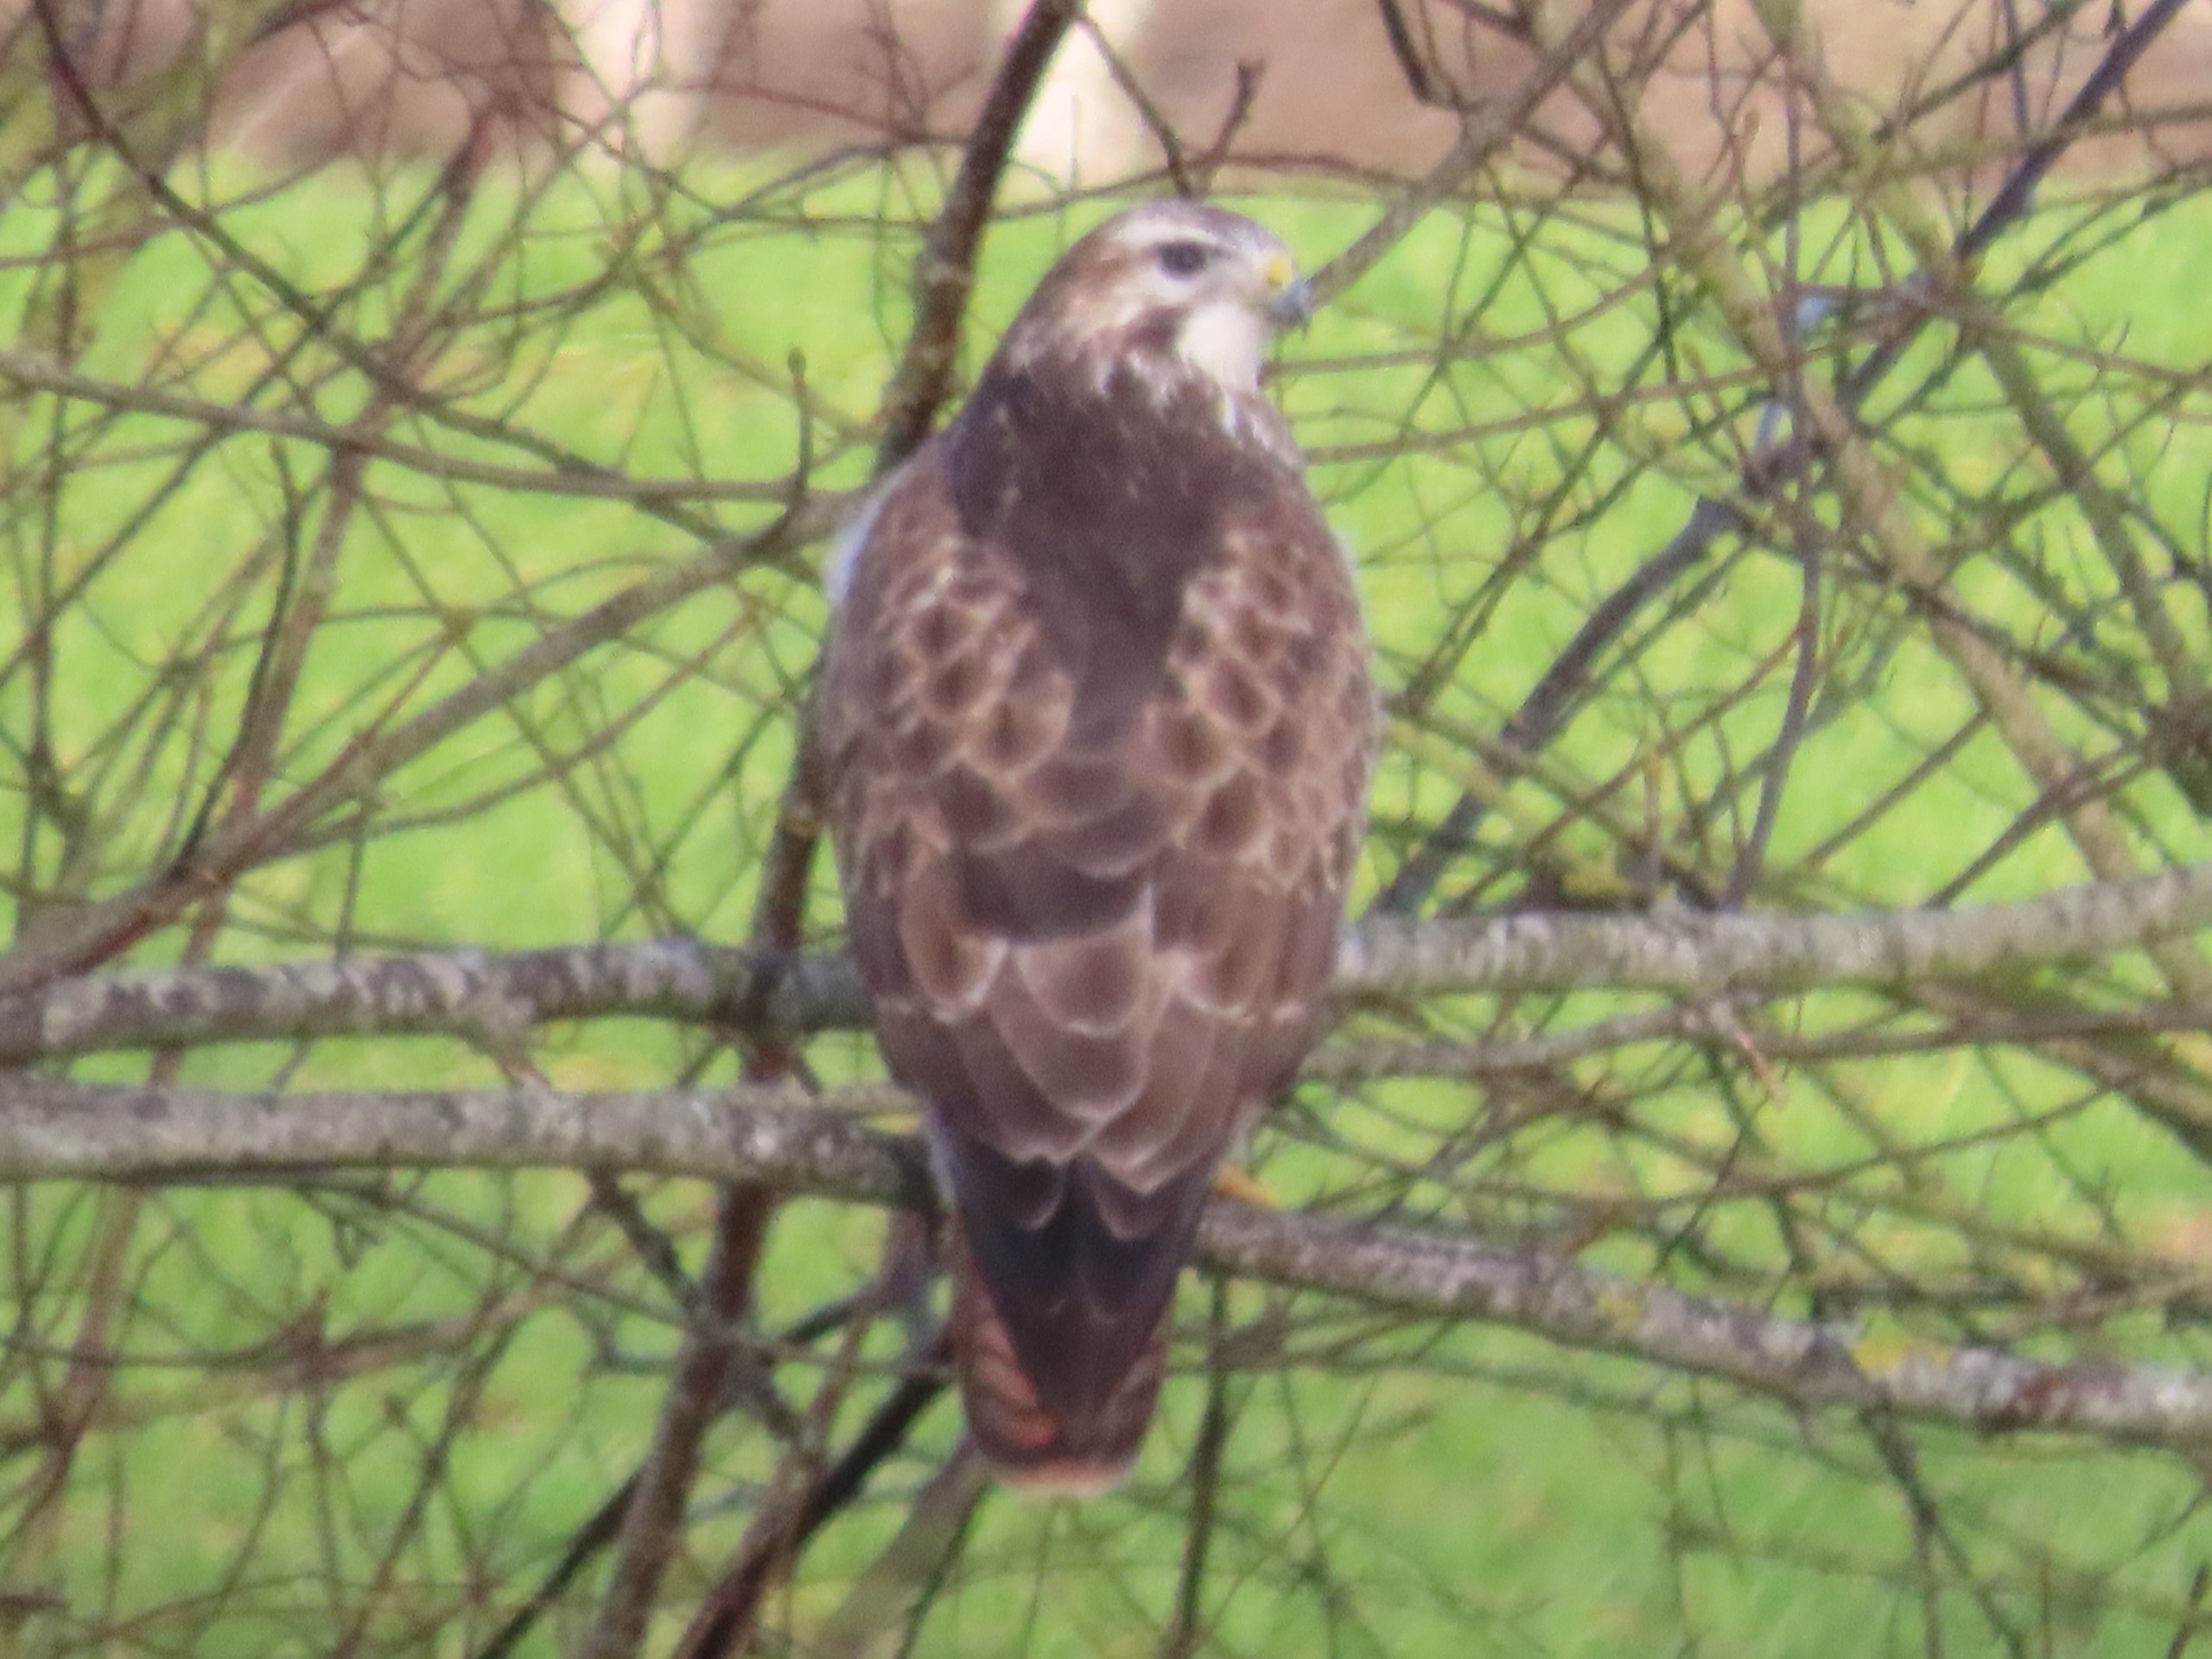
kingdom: Animalia
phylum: Chordata
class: Aves
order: Accipitriformes
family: Accipitridae
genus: Buteo
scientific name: Buteo buteo
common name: Musvåge
